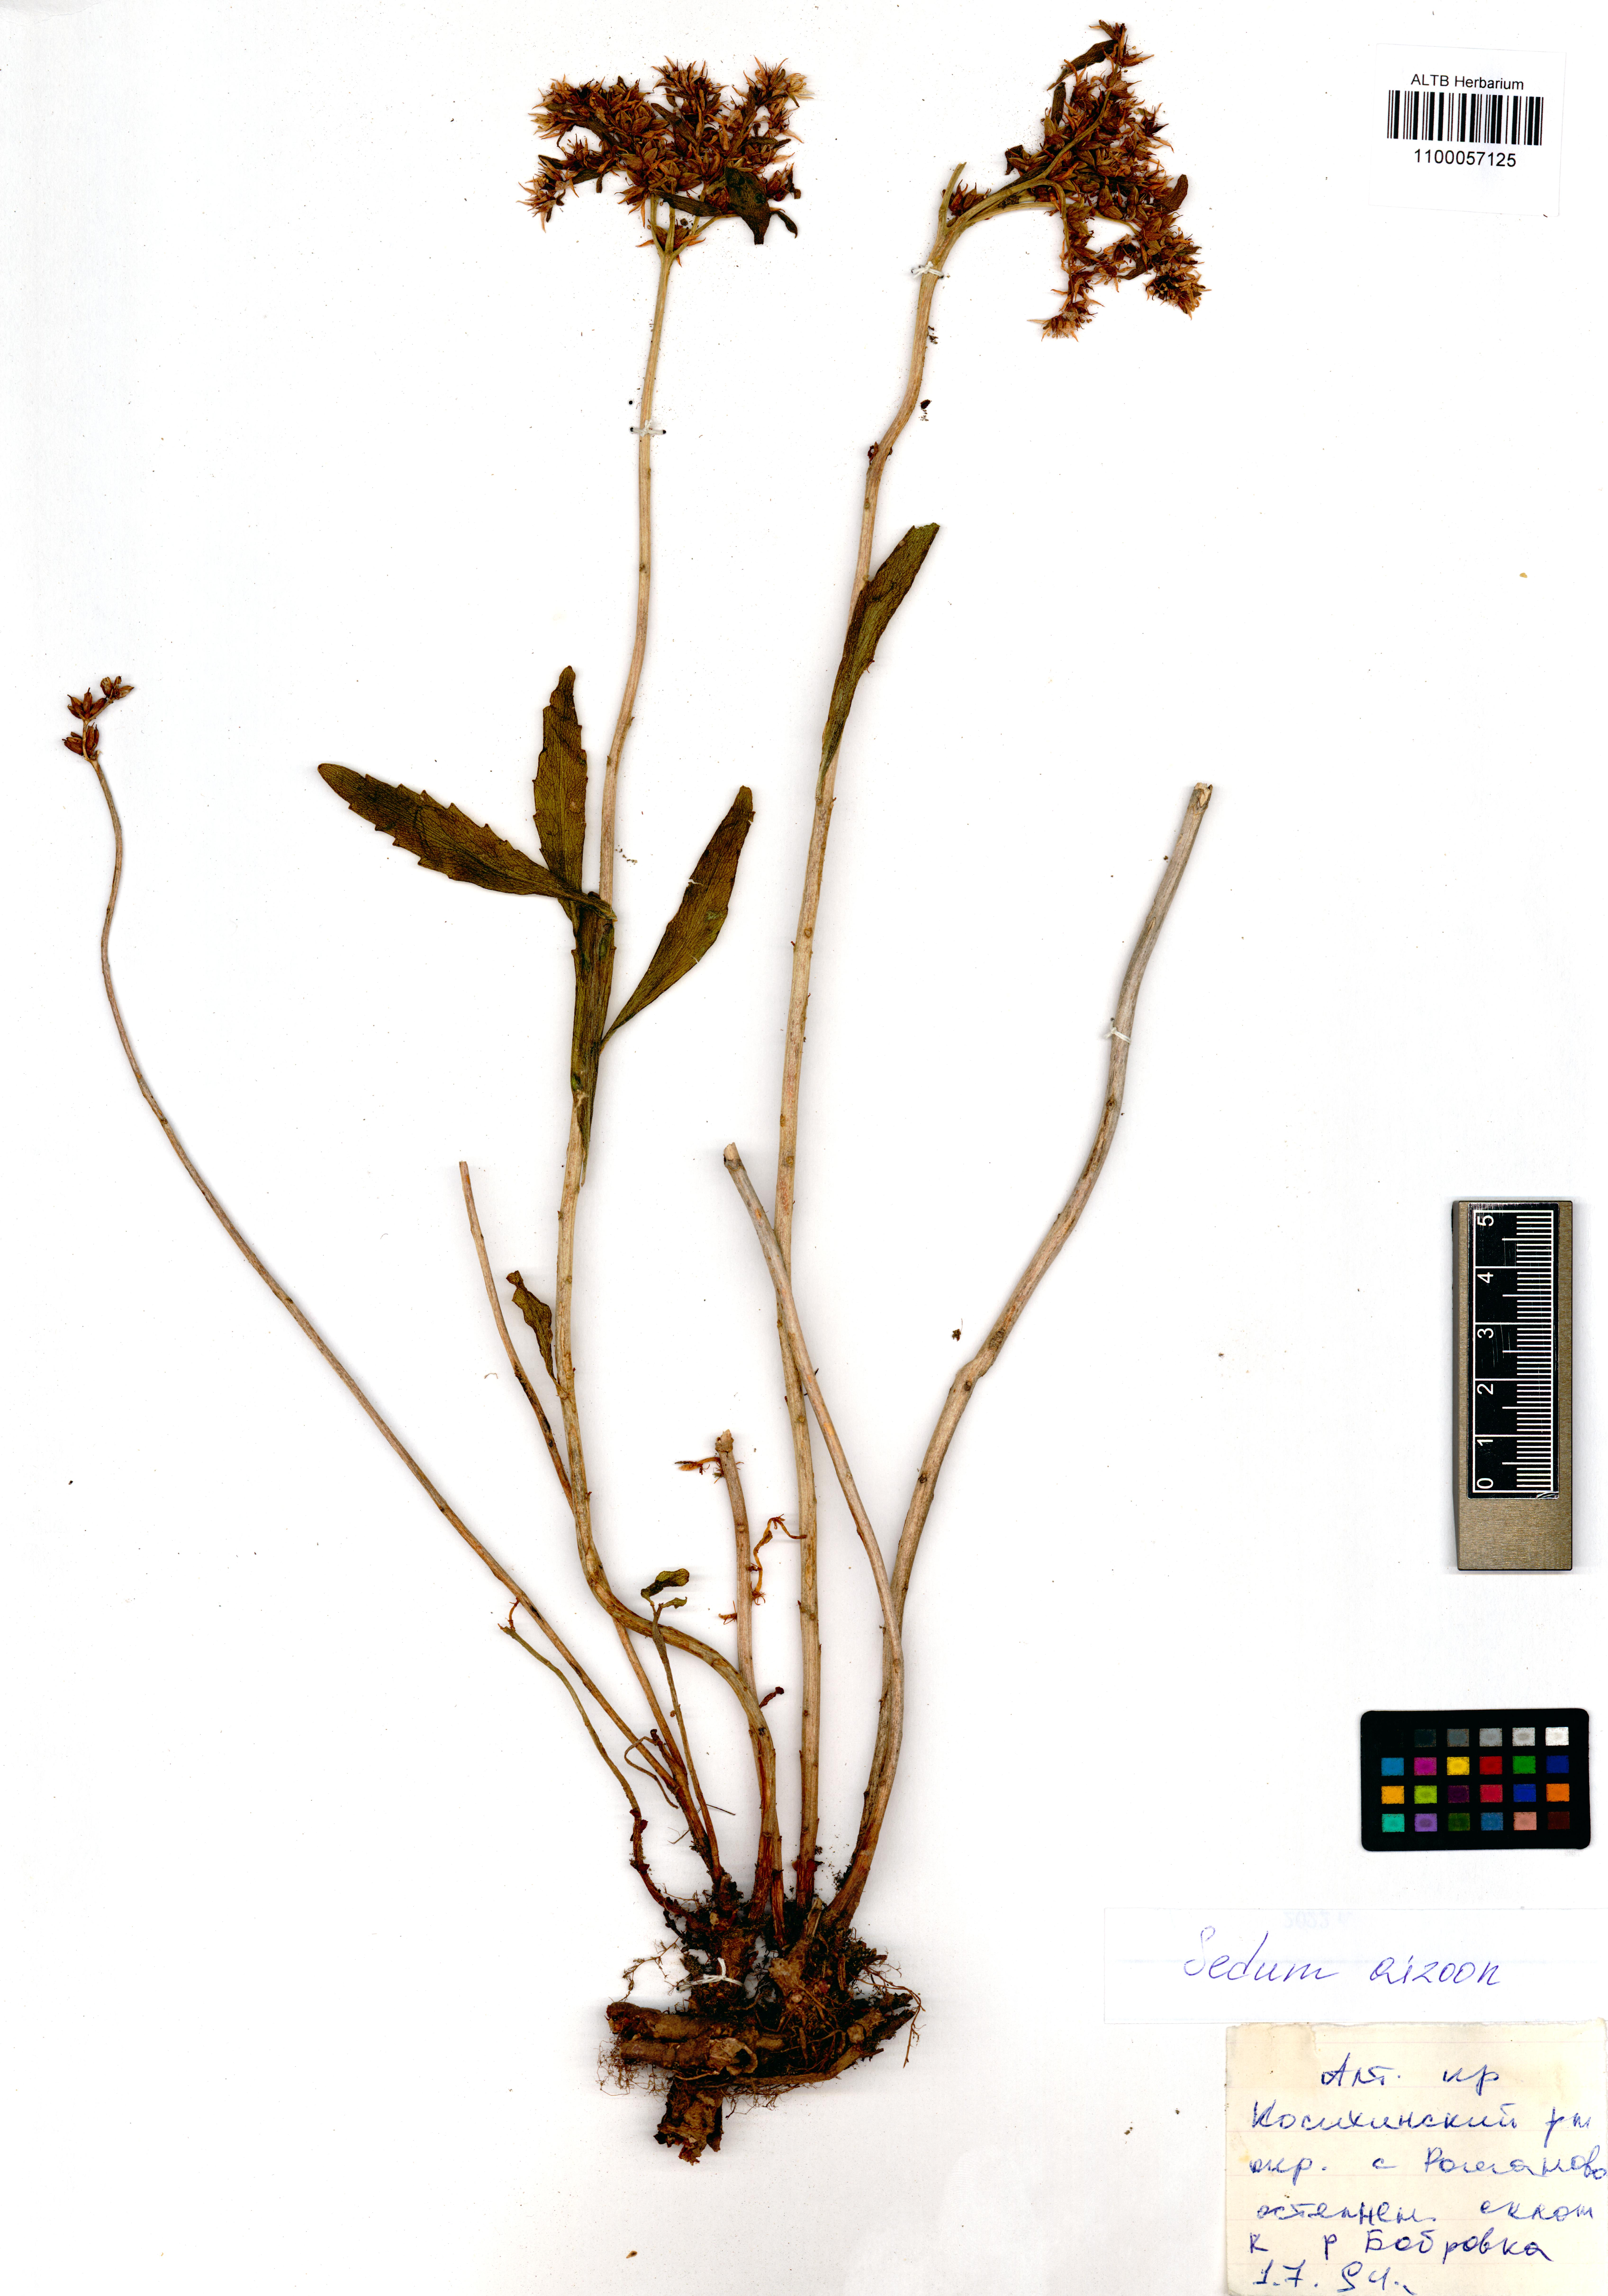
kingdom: Plantae
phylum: Tracheophyta
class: Magnoliopsida
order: Saxifragales
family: Crassulaceae
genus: Phedimus
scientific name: Phedimus aizoon
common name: Orpin aizoon
